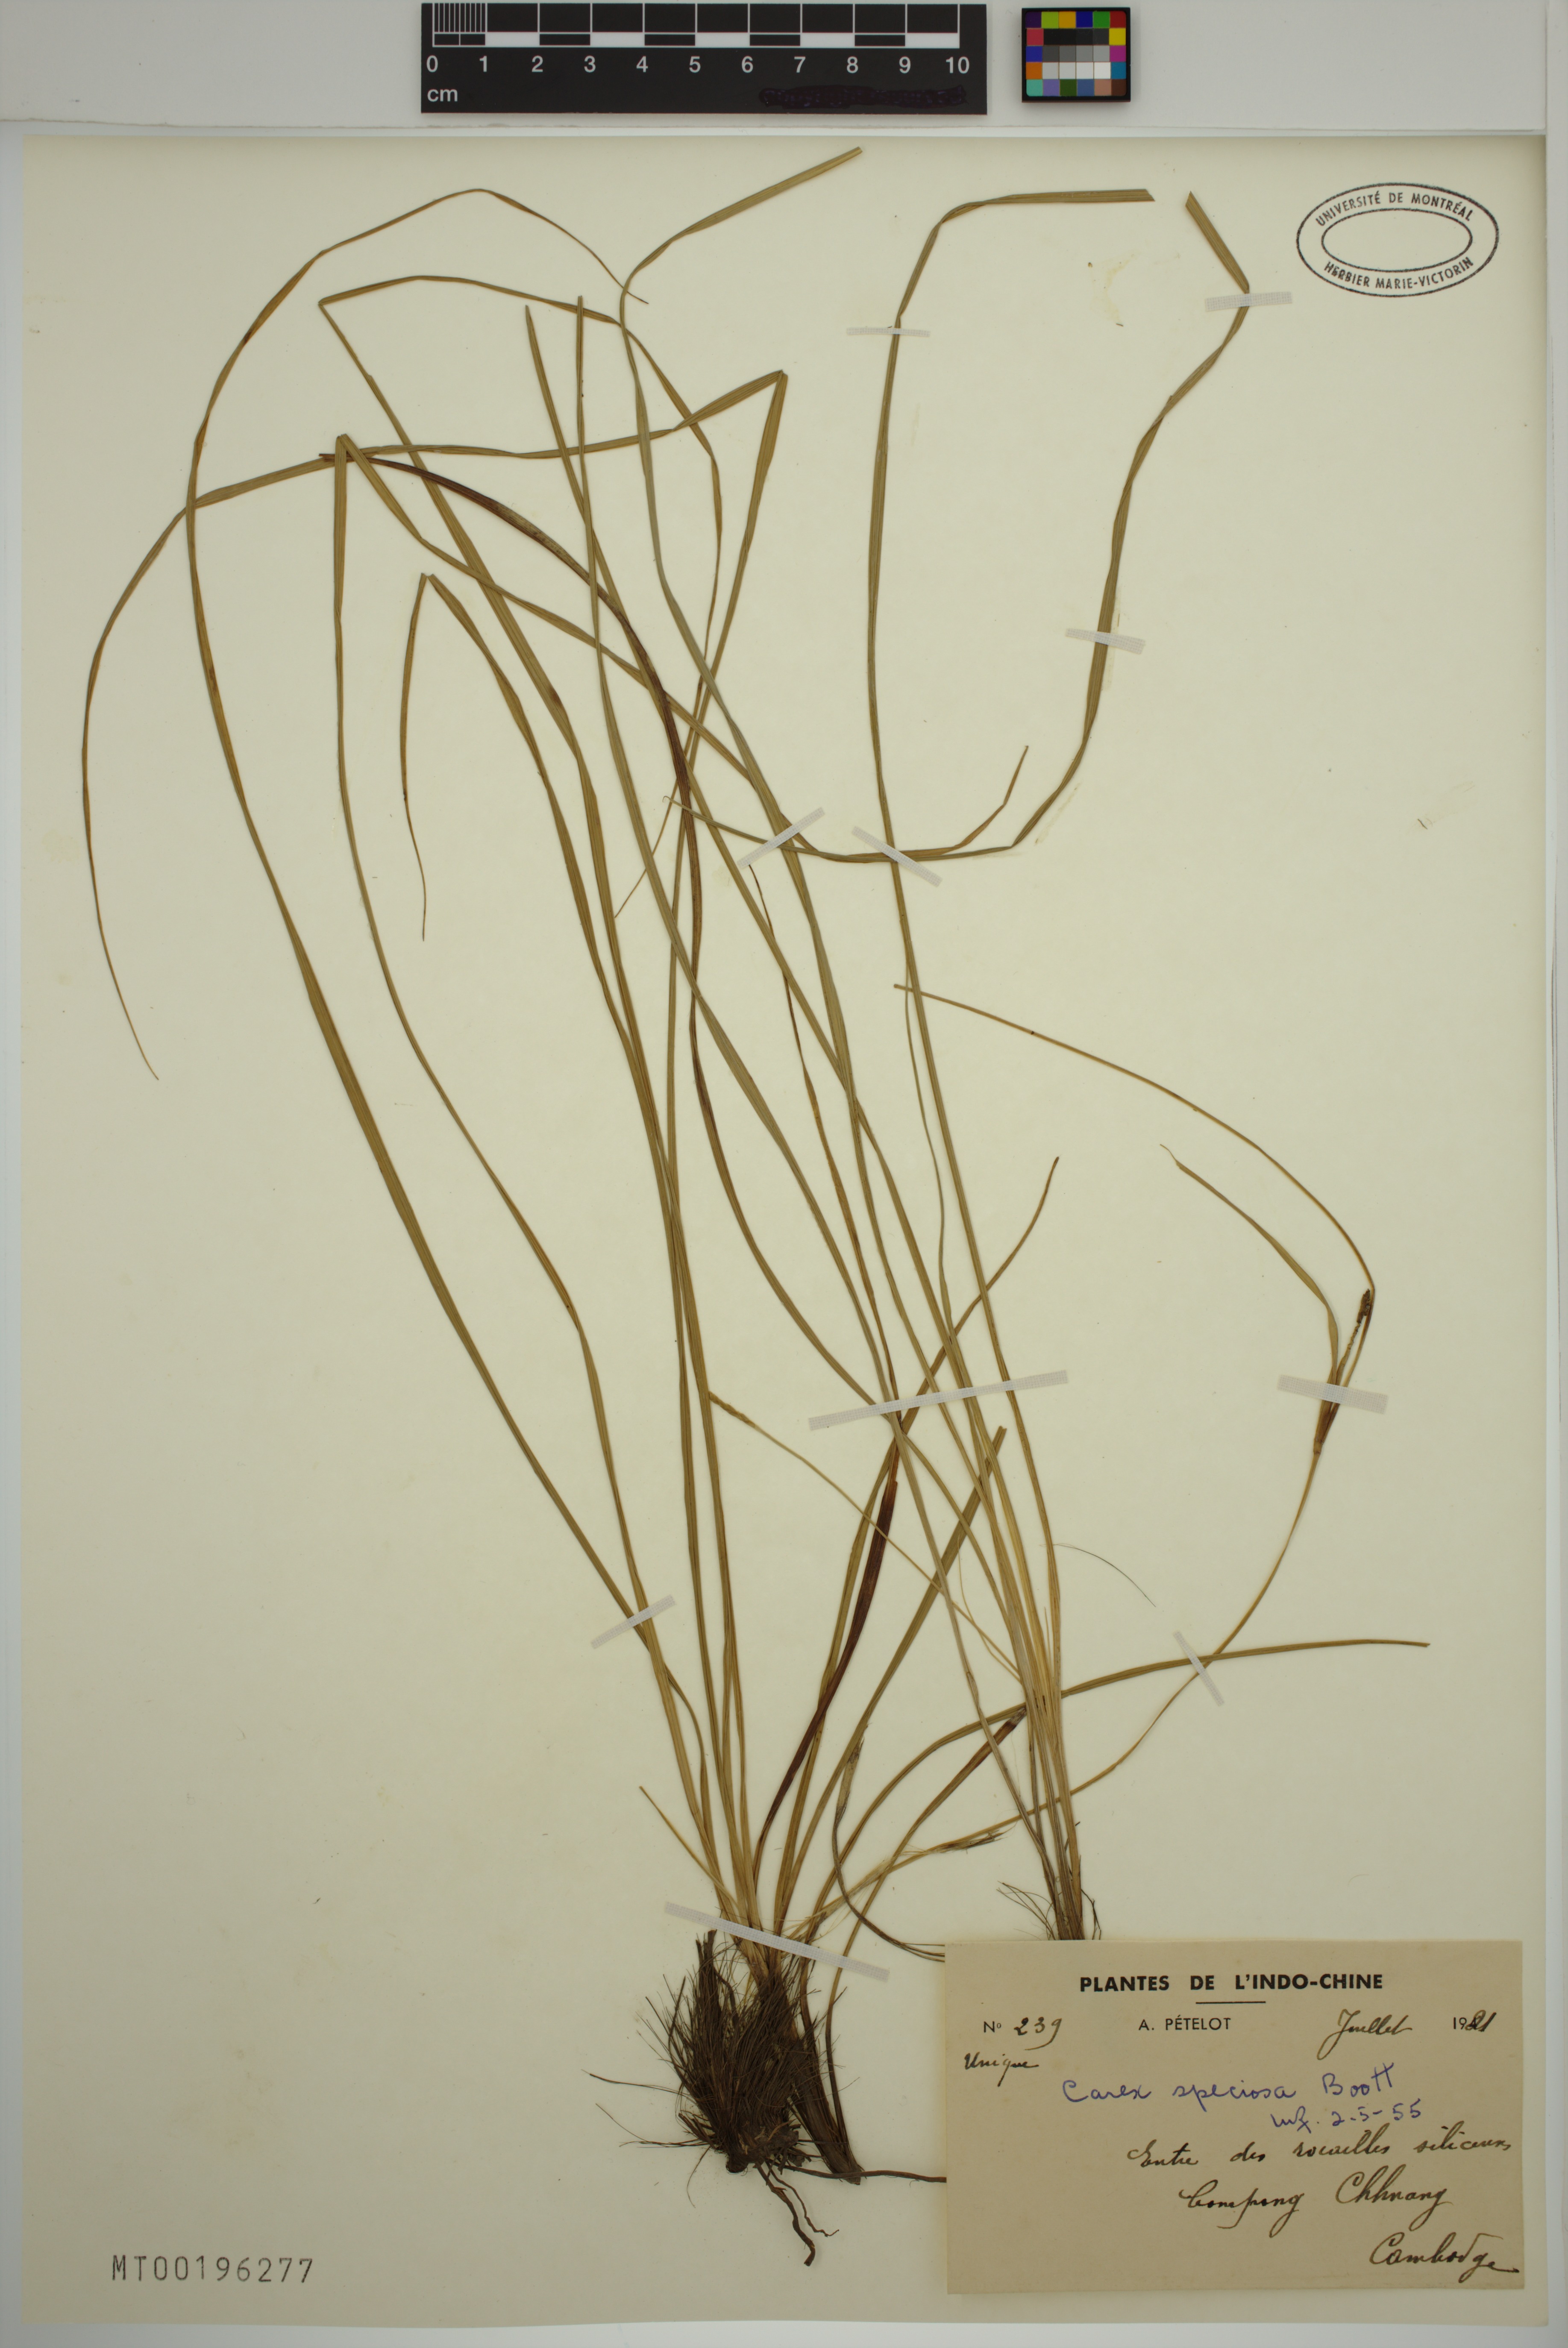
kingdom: Plantae
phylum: Tracheophyta
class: Liliopsida
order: Poales
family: Cyperaceae
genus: Carex
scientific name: Carex speciosa
